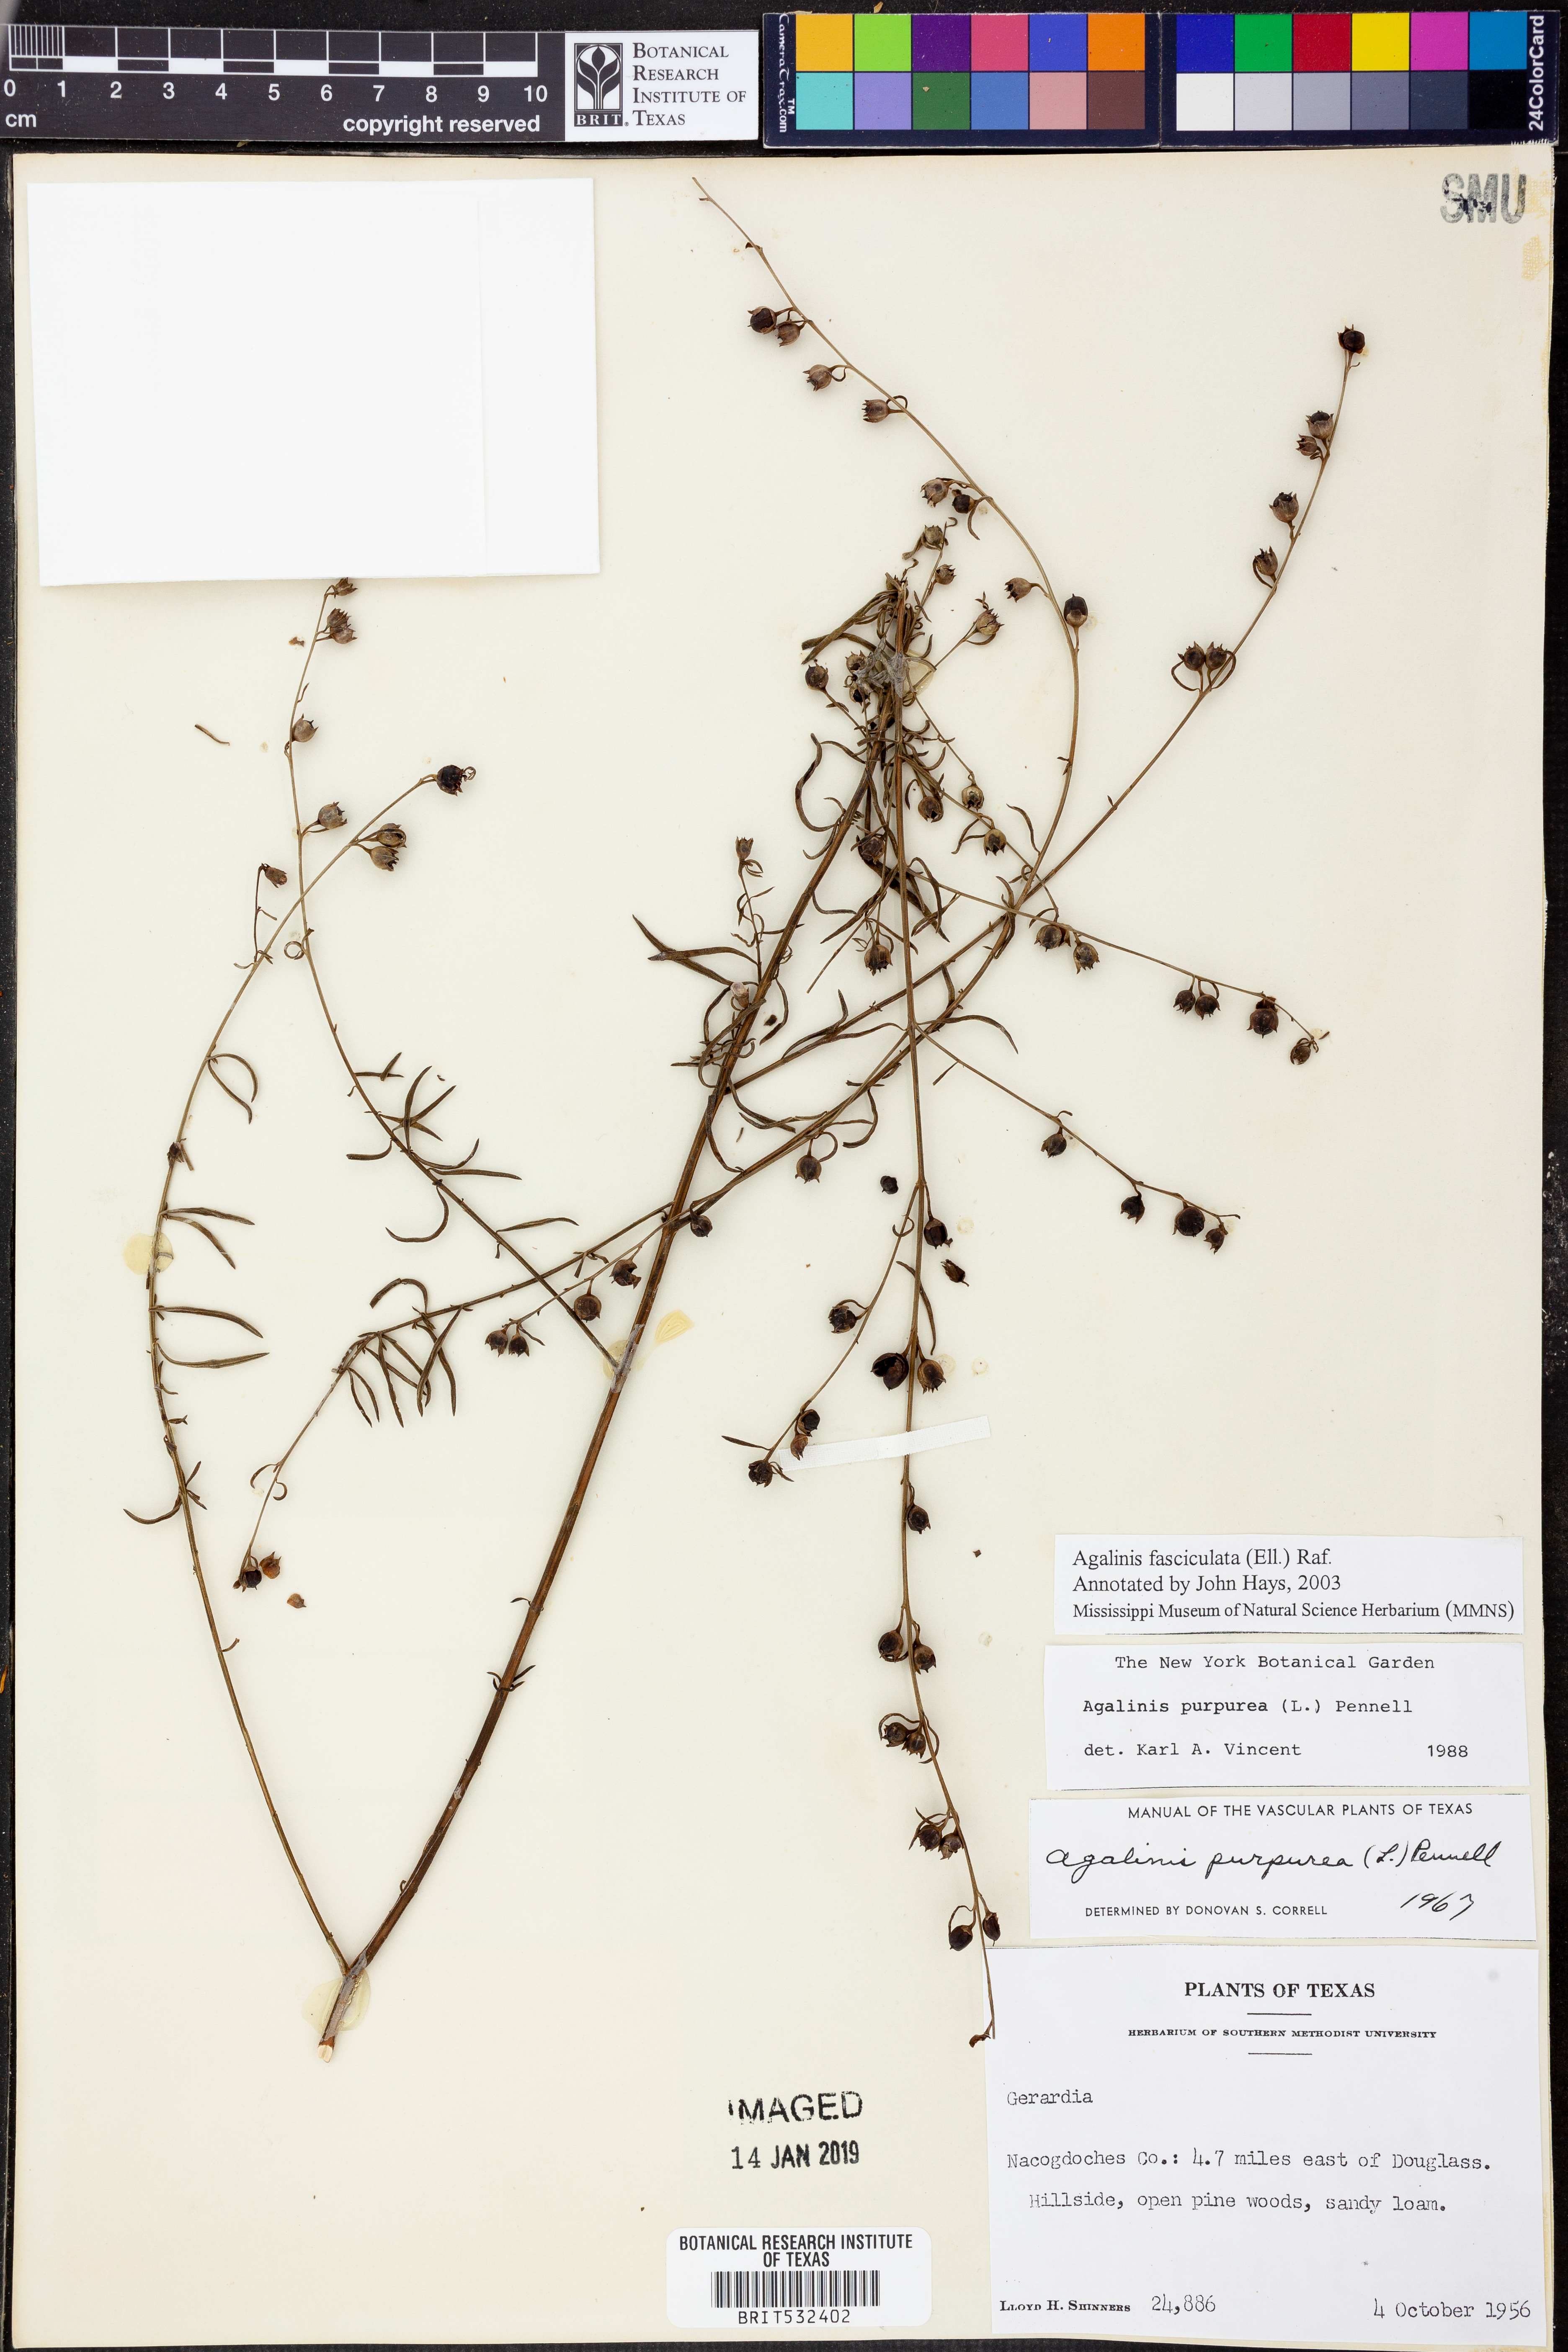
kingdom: Plantae
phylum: Tracheophyta
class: Magnoliopsida
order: Lamiales
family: Orobanchaceae
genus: Agalinis
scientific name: Agalinis fasciculata
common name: Beach false foxglove
